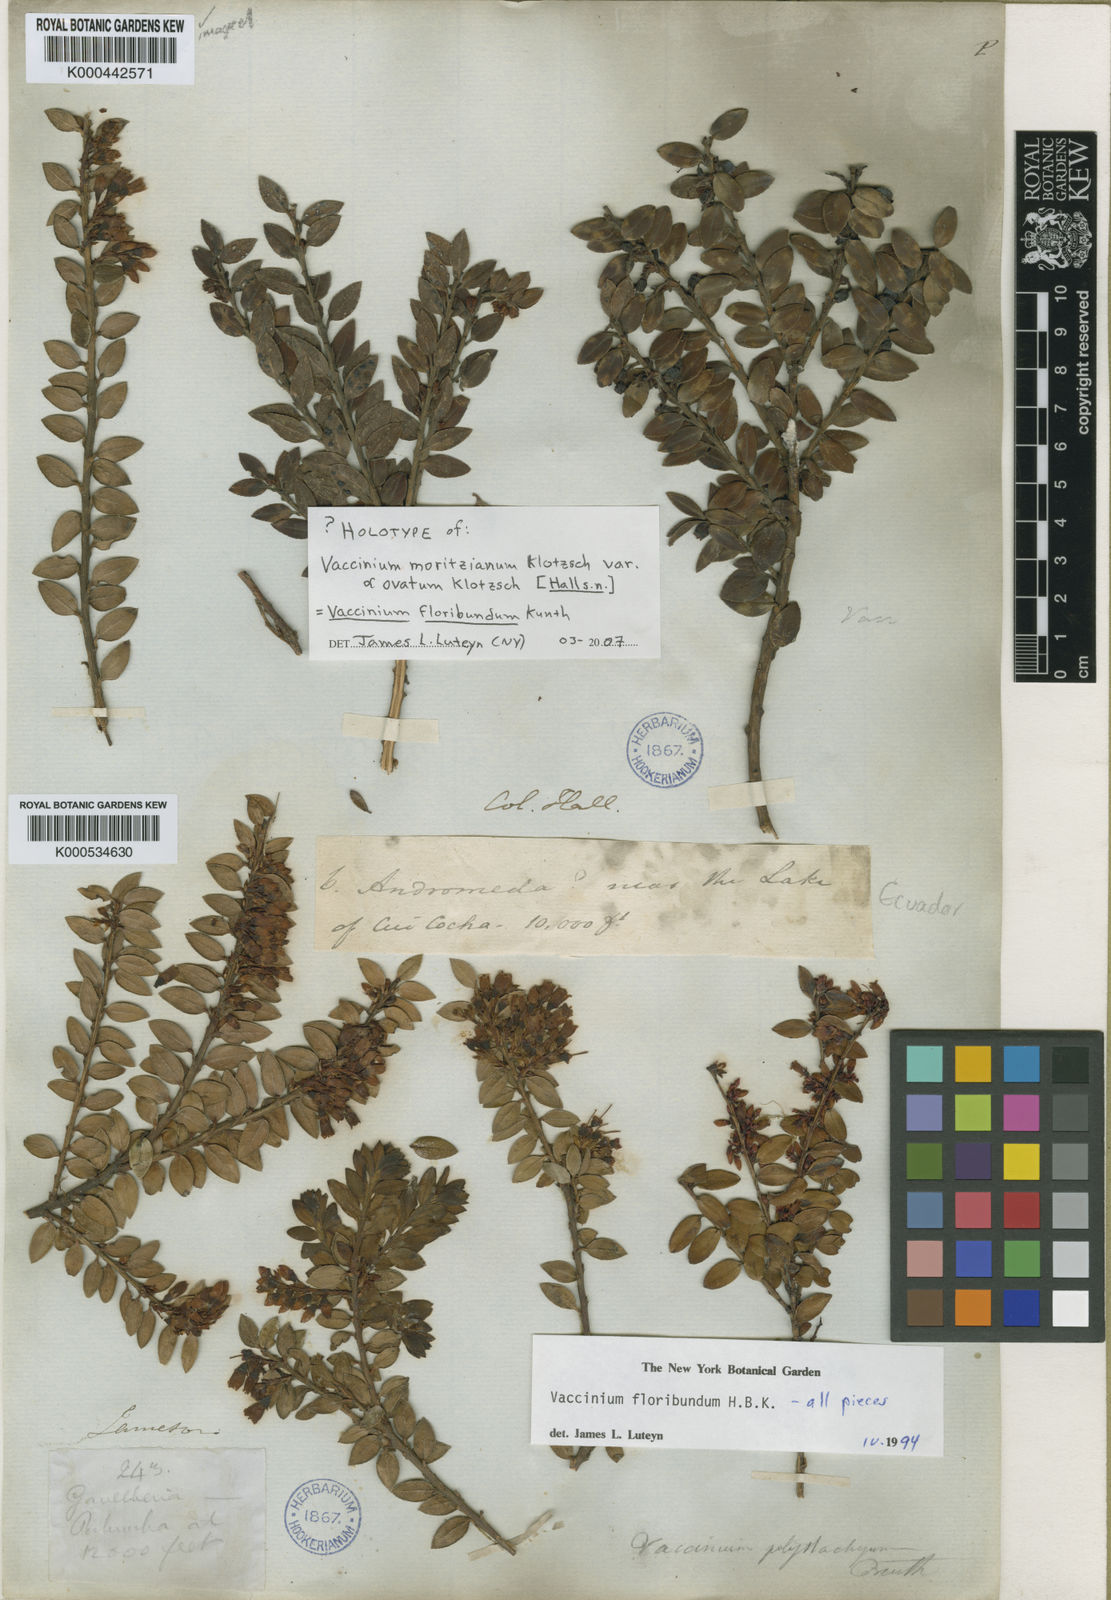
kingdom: Plantae
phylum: Tracheophyta
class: Magnoliopsida
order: Ericales
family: Ericaceae
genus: Vaccinium
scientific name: Vaccinium floribundum
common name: Colombian blueberry
